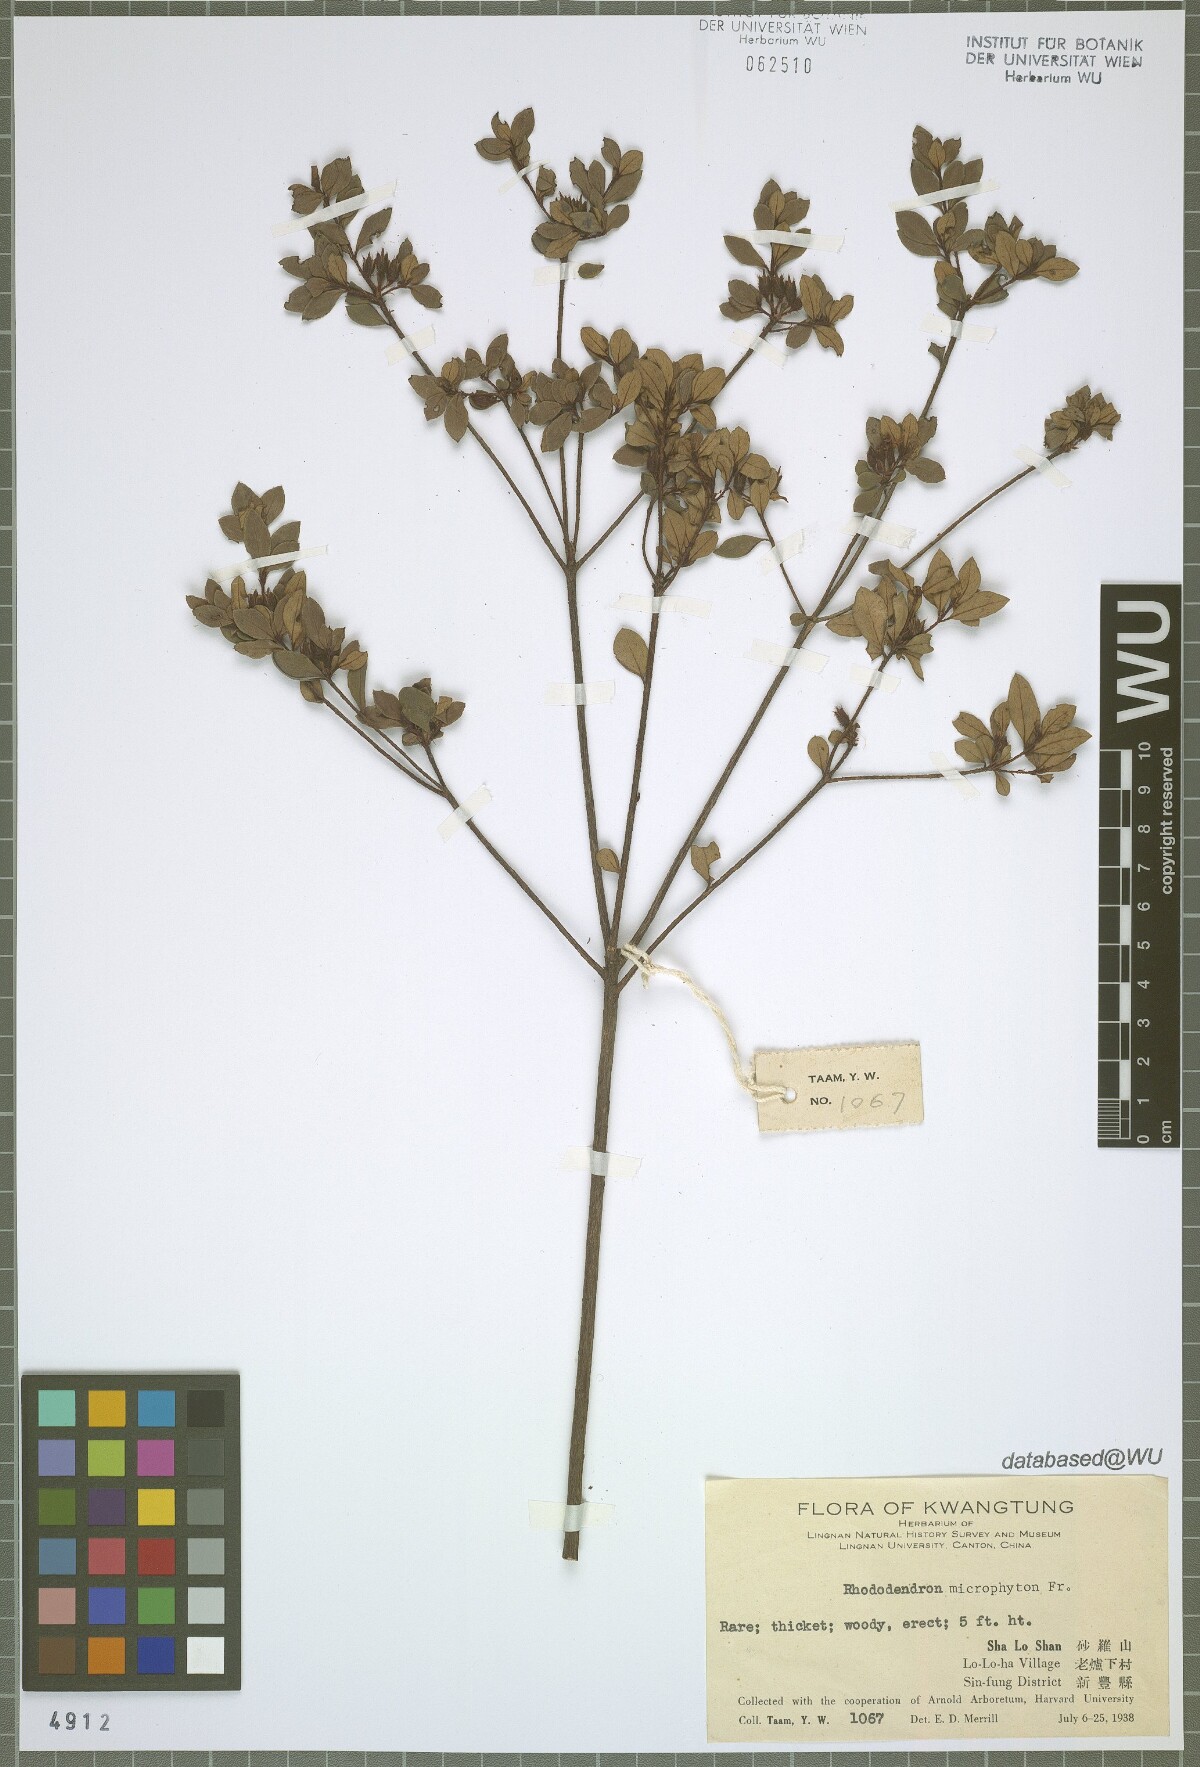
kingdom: Plantae
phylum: Tracheophyta
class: Magnoliopsida
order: Ericales
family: Ericaceae
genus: Rhododendron
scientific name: Rhododendron microphyton
